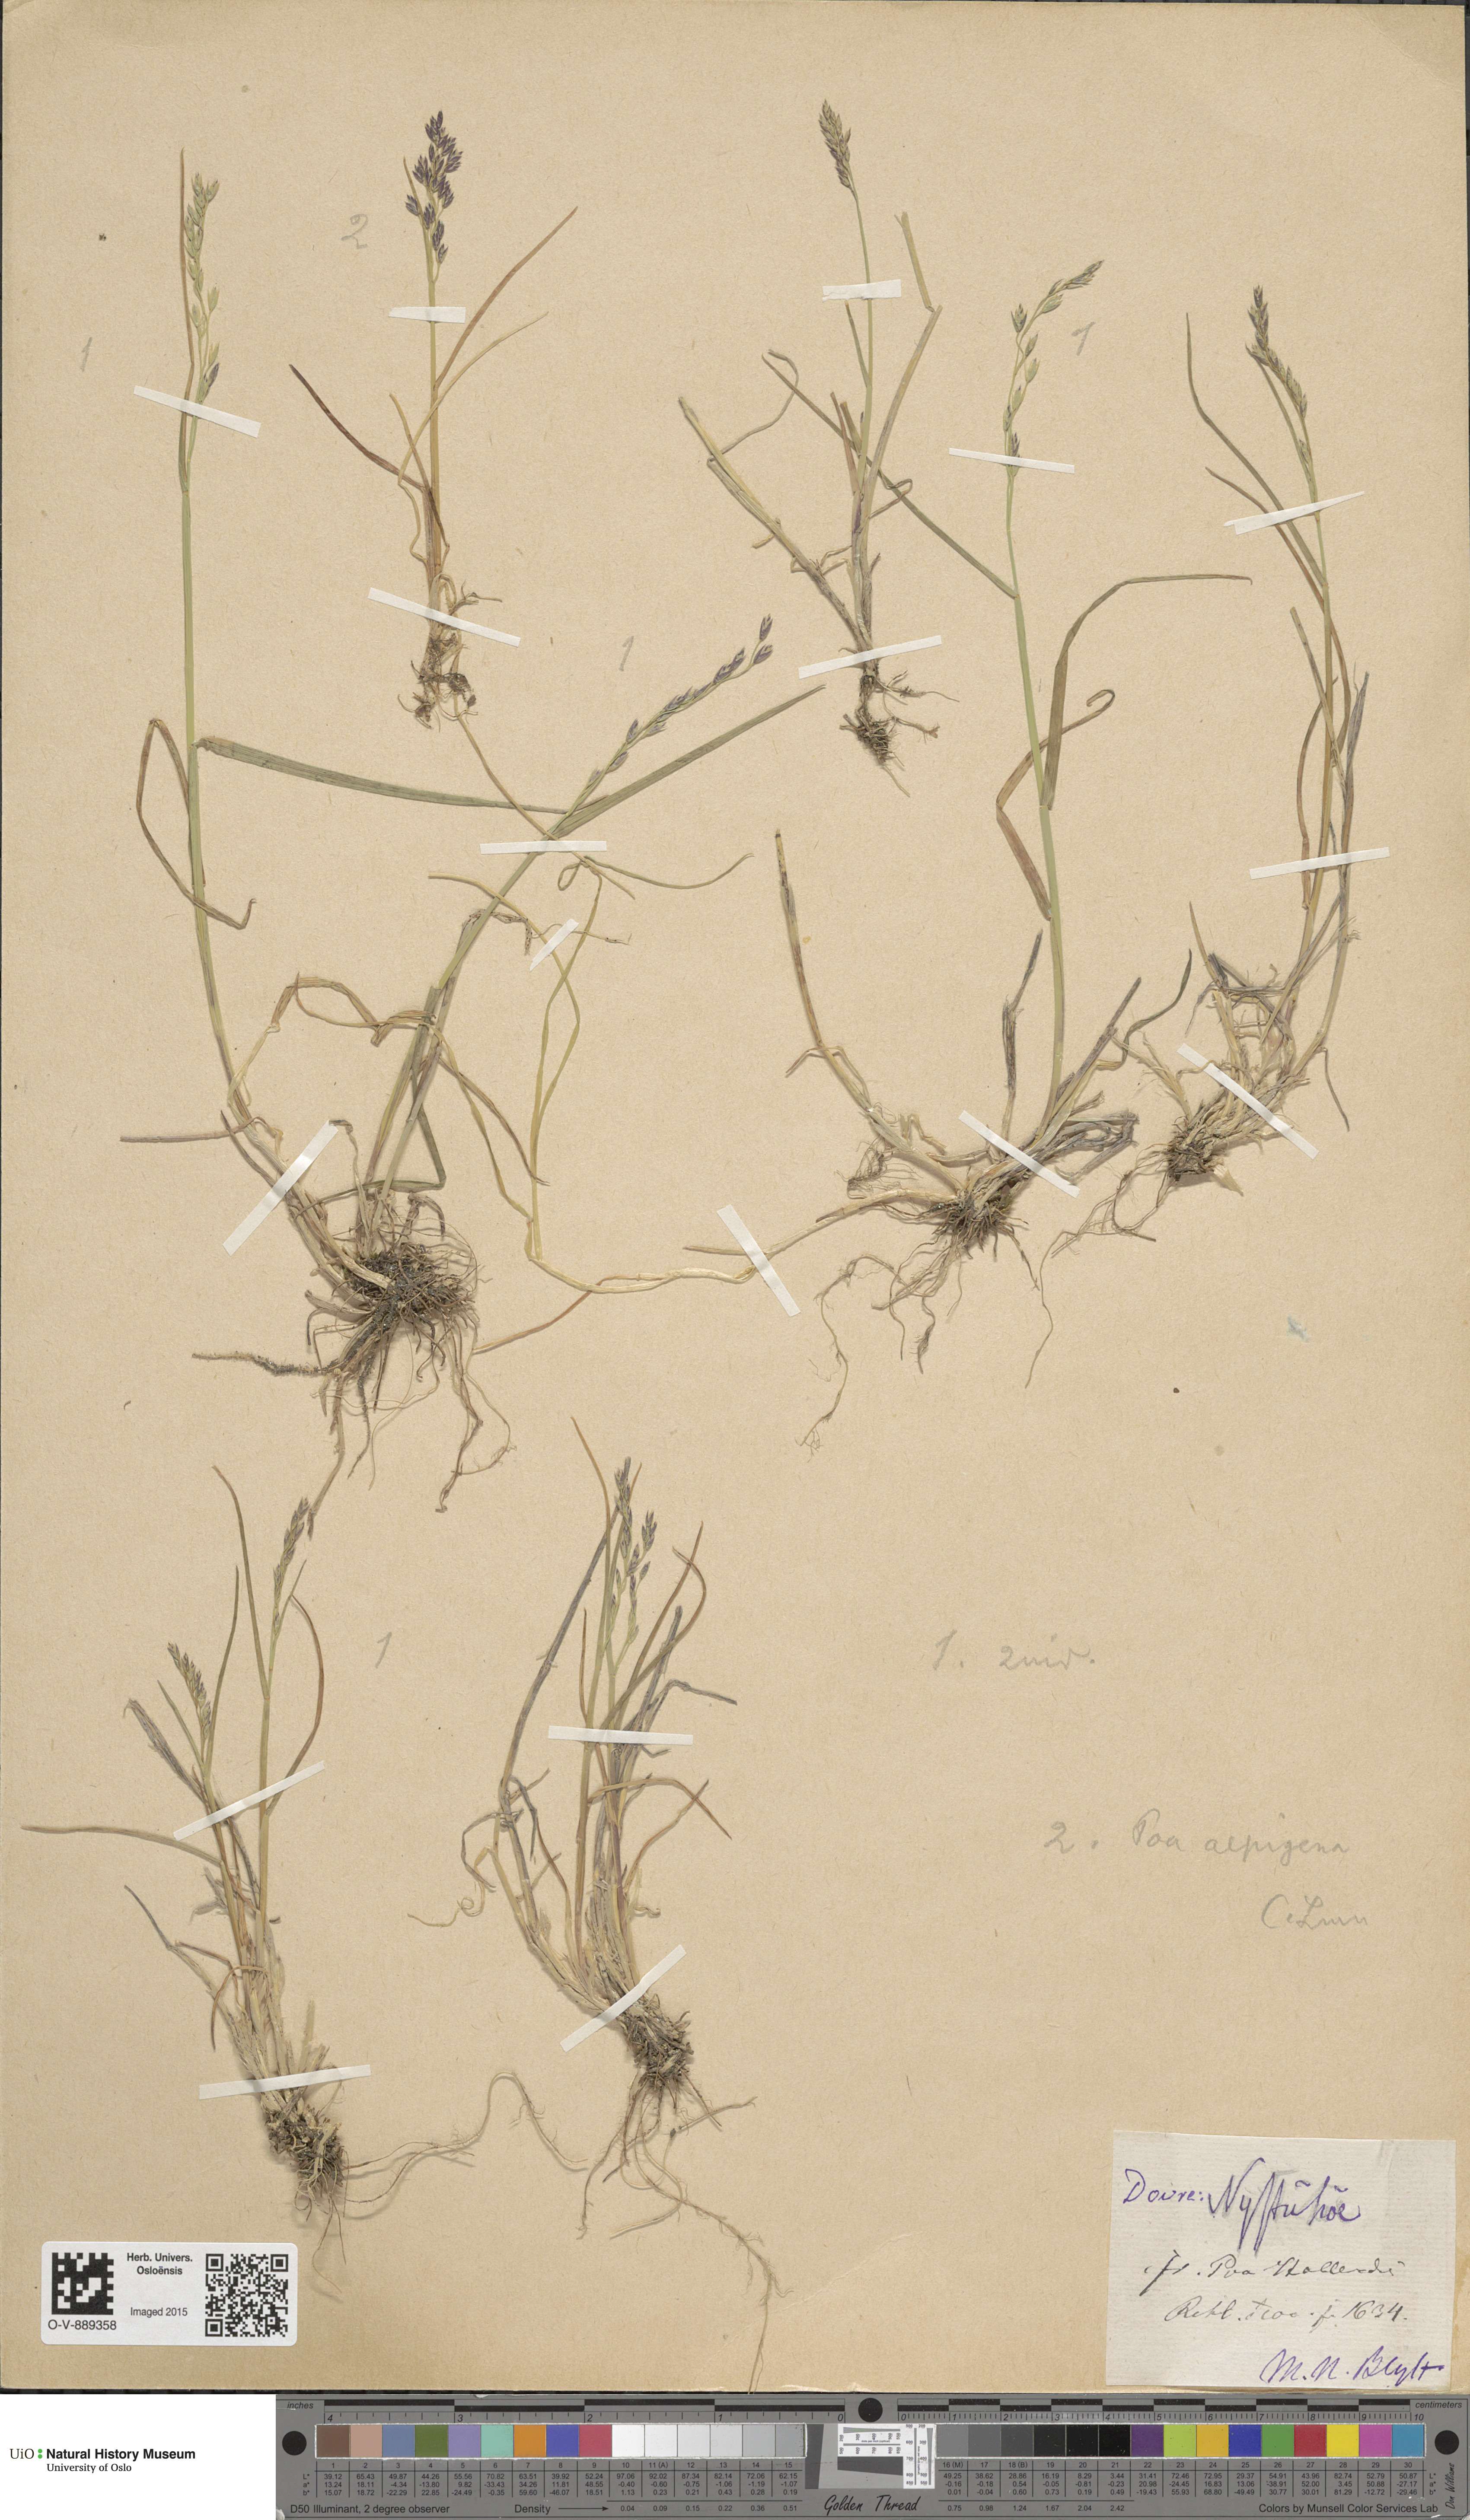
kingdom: Plantae
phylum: Tracheophyta
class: Liliopsida
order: Poales
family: Poaceae
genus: Poa
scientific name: Poa alpigena
